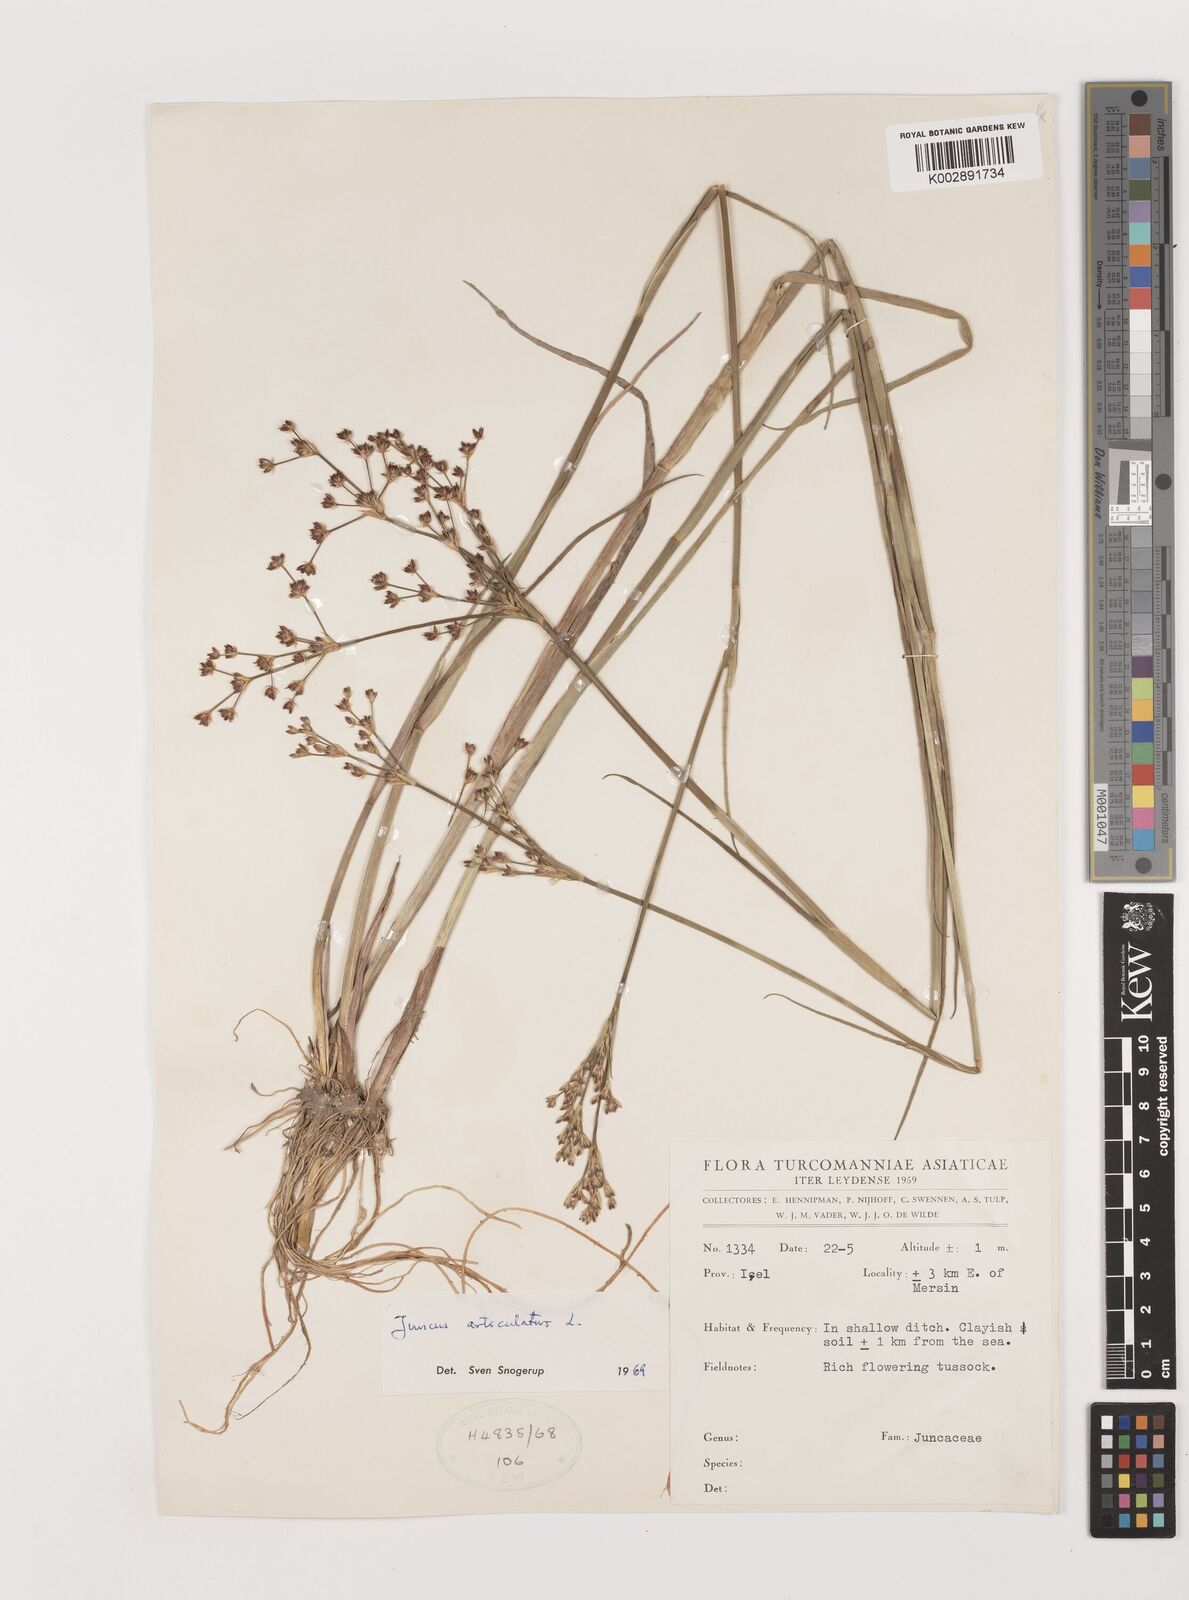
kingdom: Plantae
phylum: Tracheophyta
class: Liliopsida
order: Poales
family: Juncaceae
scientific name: Juncaceae
